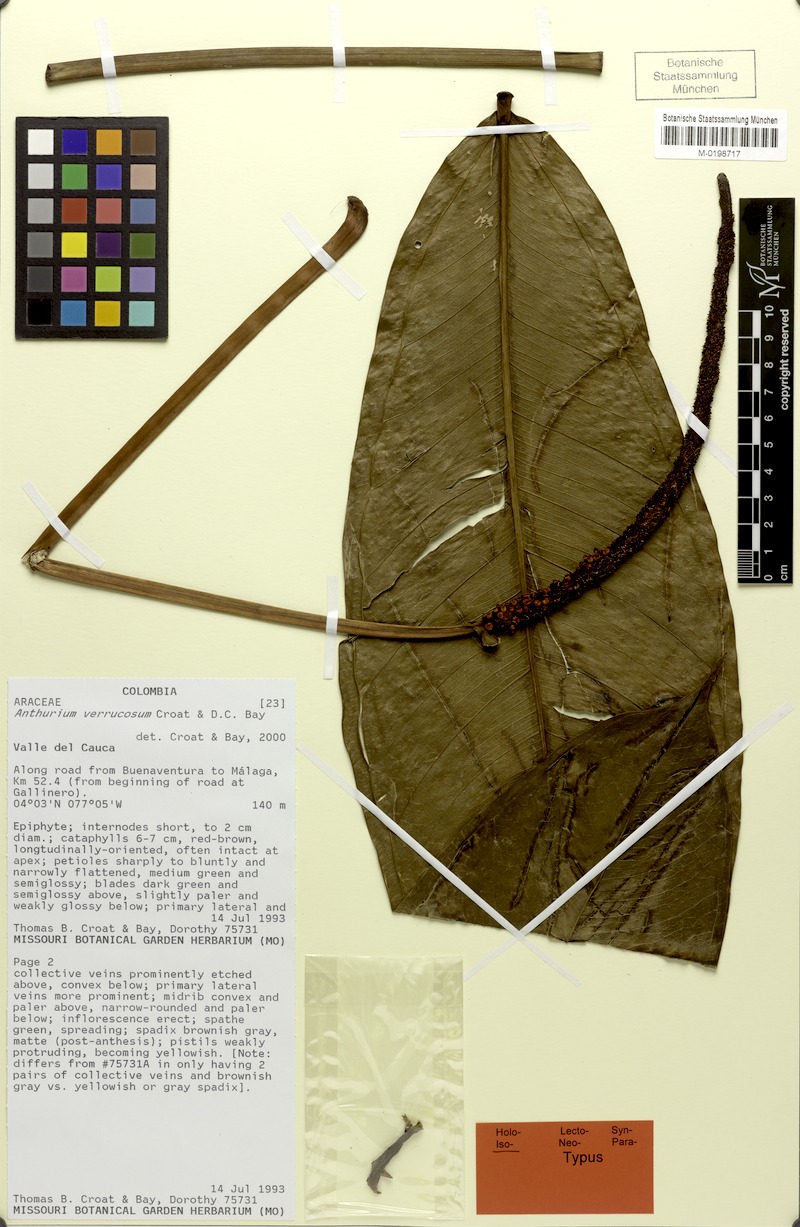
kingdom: Plantae
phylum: Tracheophyta
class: Liliopsida
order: Alismatales
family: Araceae
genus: Anthurium
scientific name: Anthurium verrucosum
